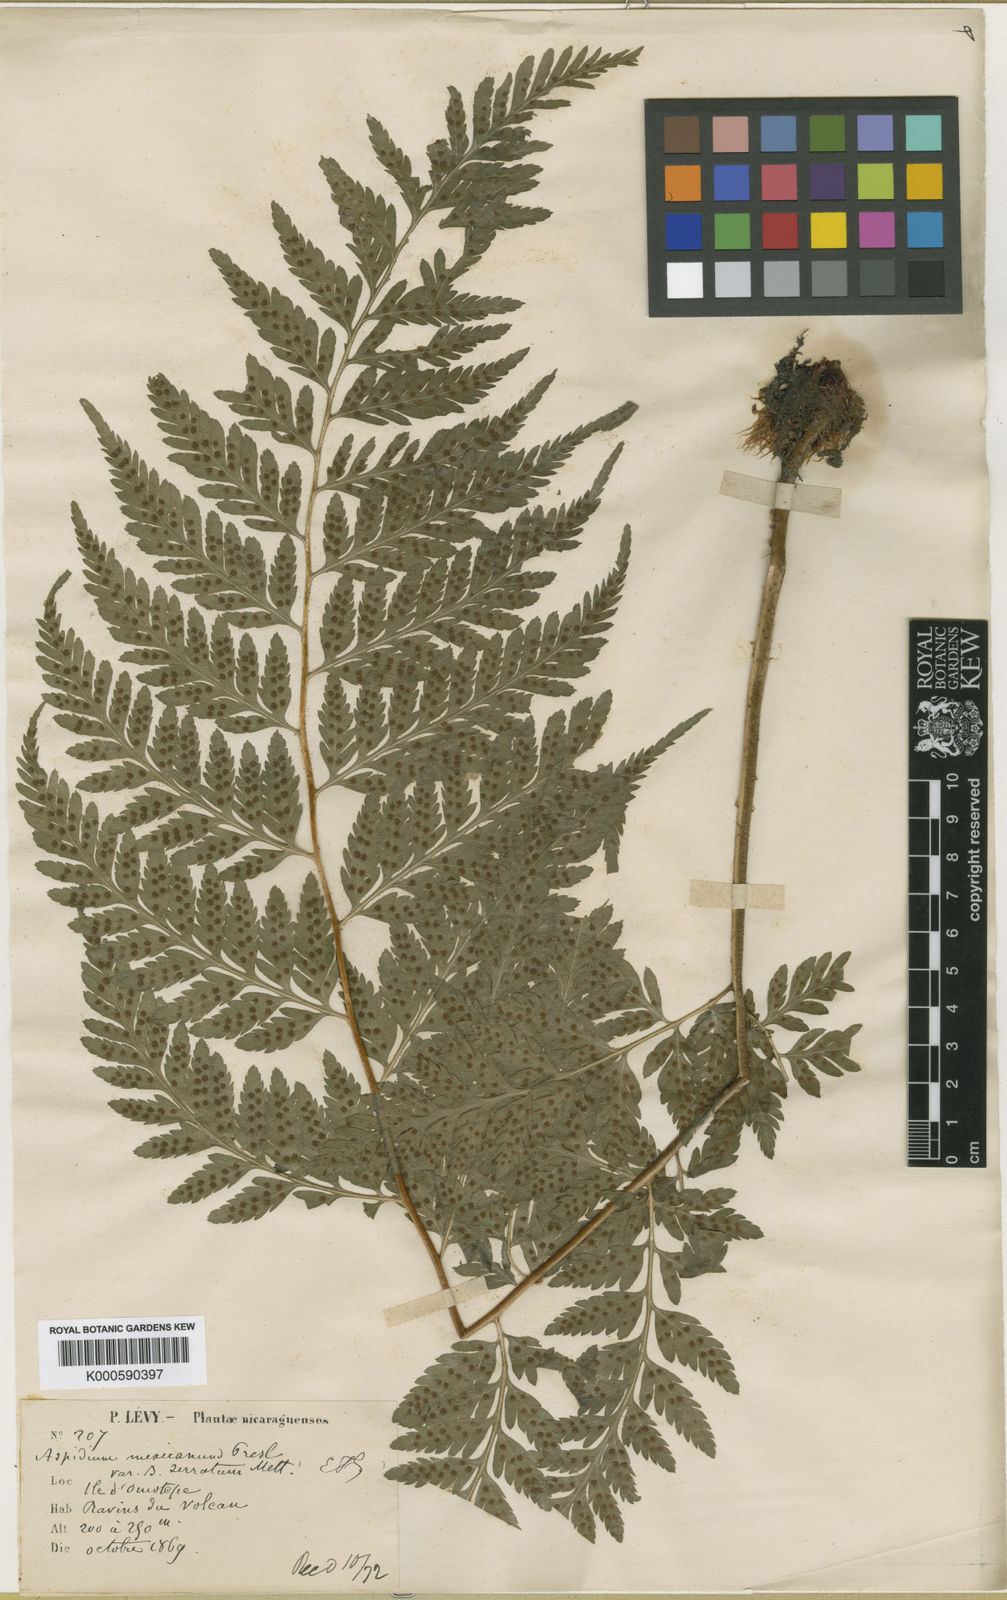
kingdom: Plantae
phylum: Tracheophyta
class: Polypodiopsida
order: Polypodiales
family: Dryopteridaceae
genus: Dryopteris
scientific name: Dryopteris
